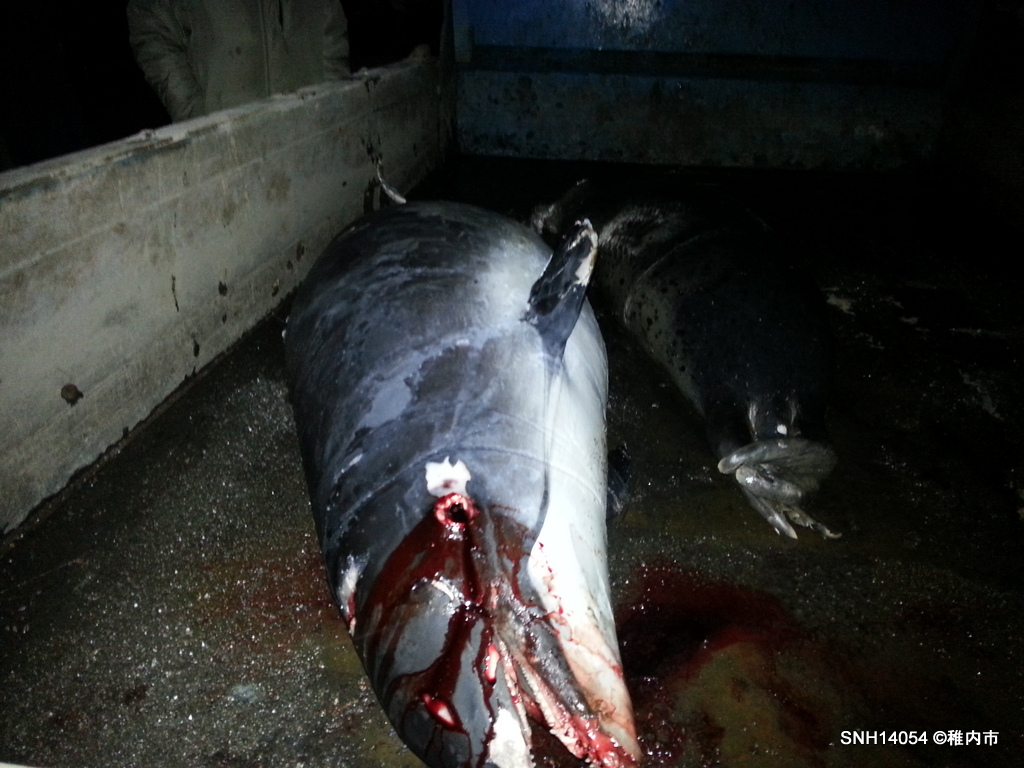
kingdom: Animalia
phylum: Chordata
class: Mammalia
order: Cetacea
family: Phocoenidae
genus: Phocoena
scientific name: Phocoena phocoena
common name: Harbour porpoise
